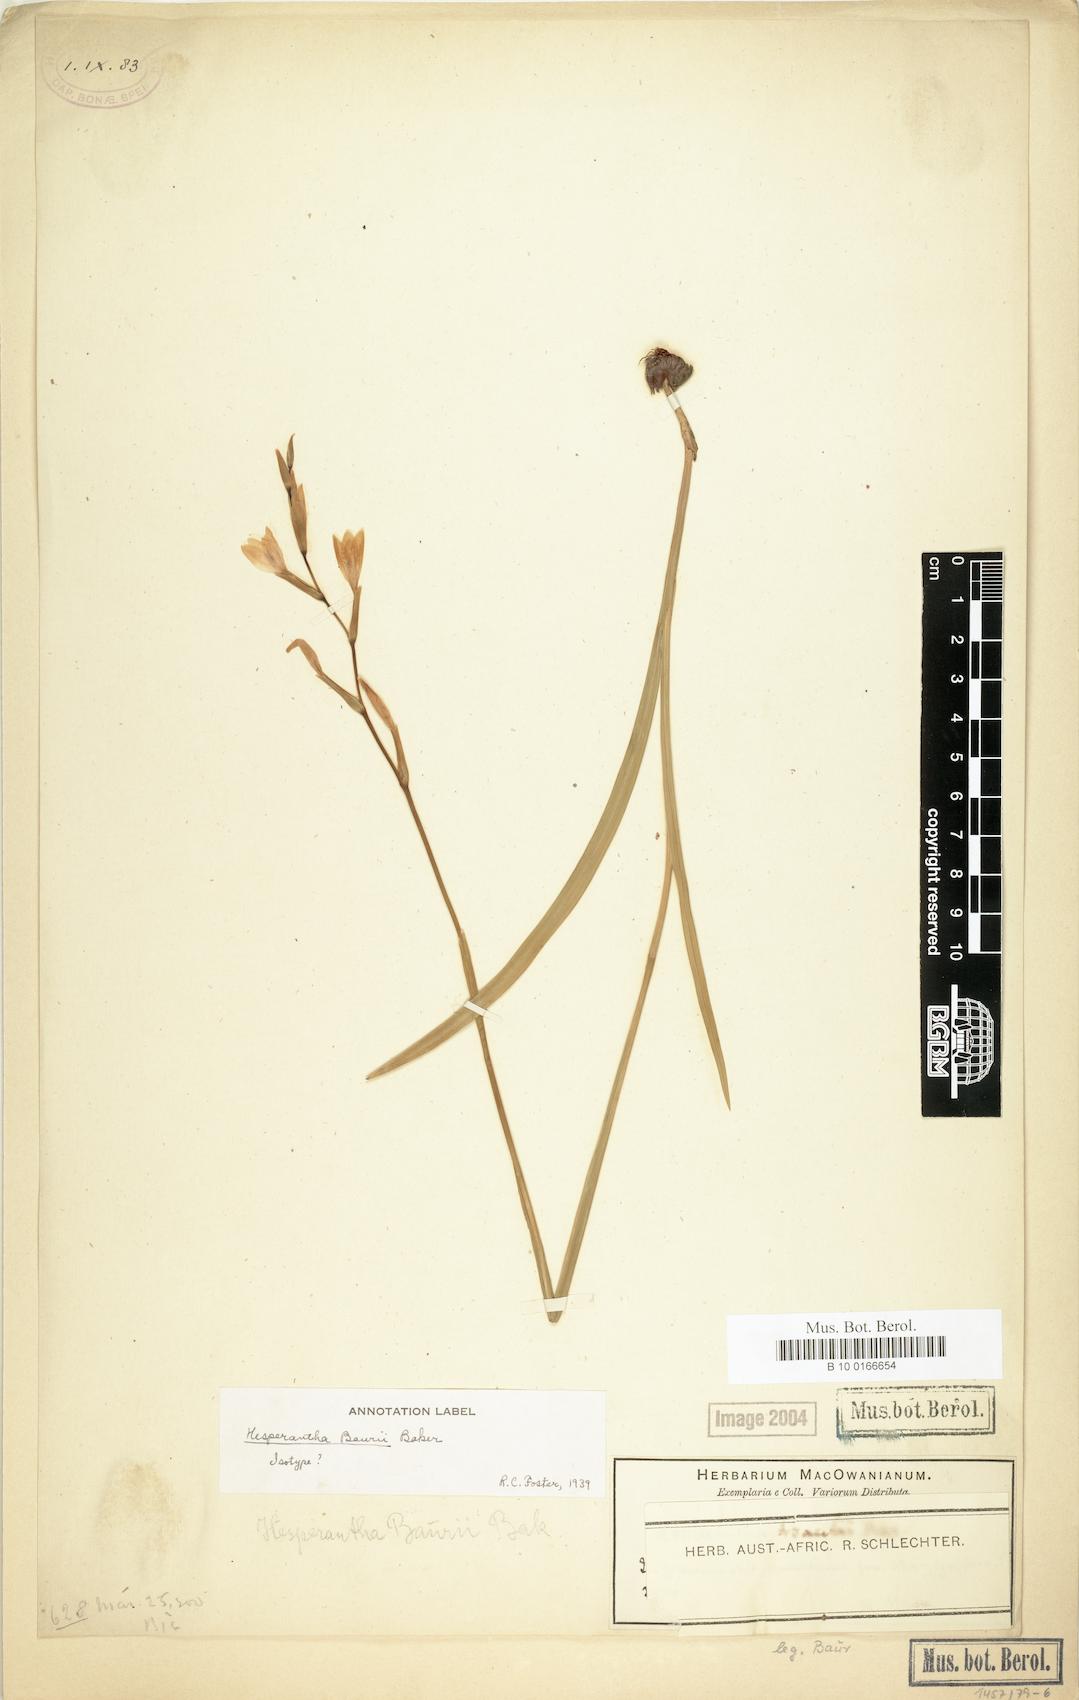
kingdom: Plantae
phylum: Tracheophyta
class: Liliopsida
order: Asparagales
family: Iridaceae
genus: Hesperantha
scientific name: Hesperantha baurii
